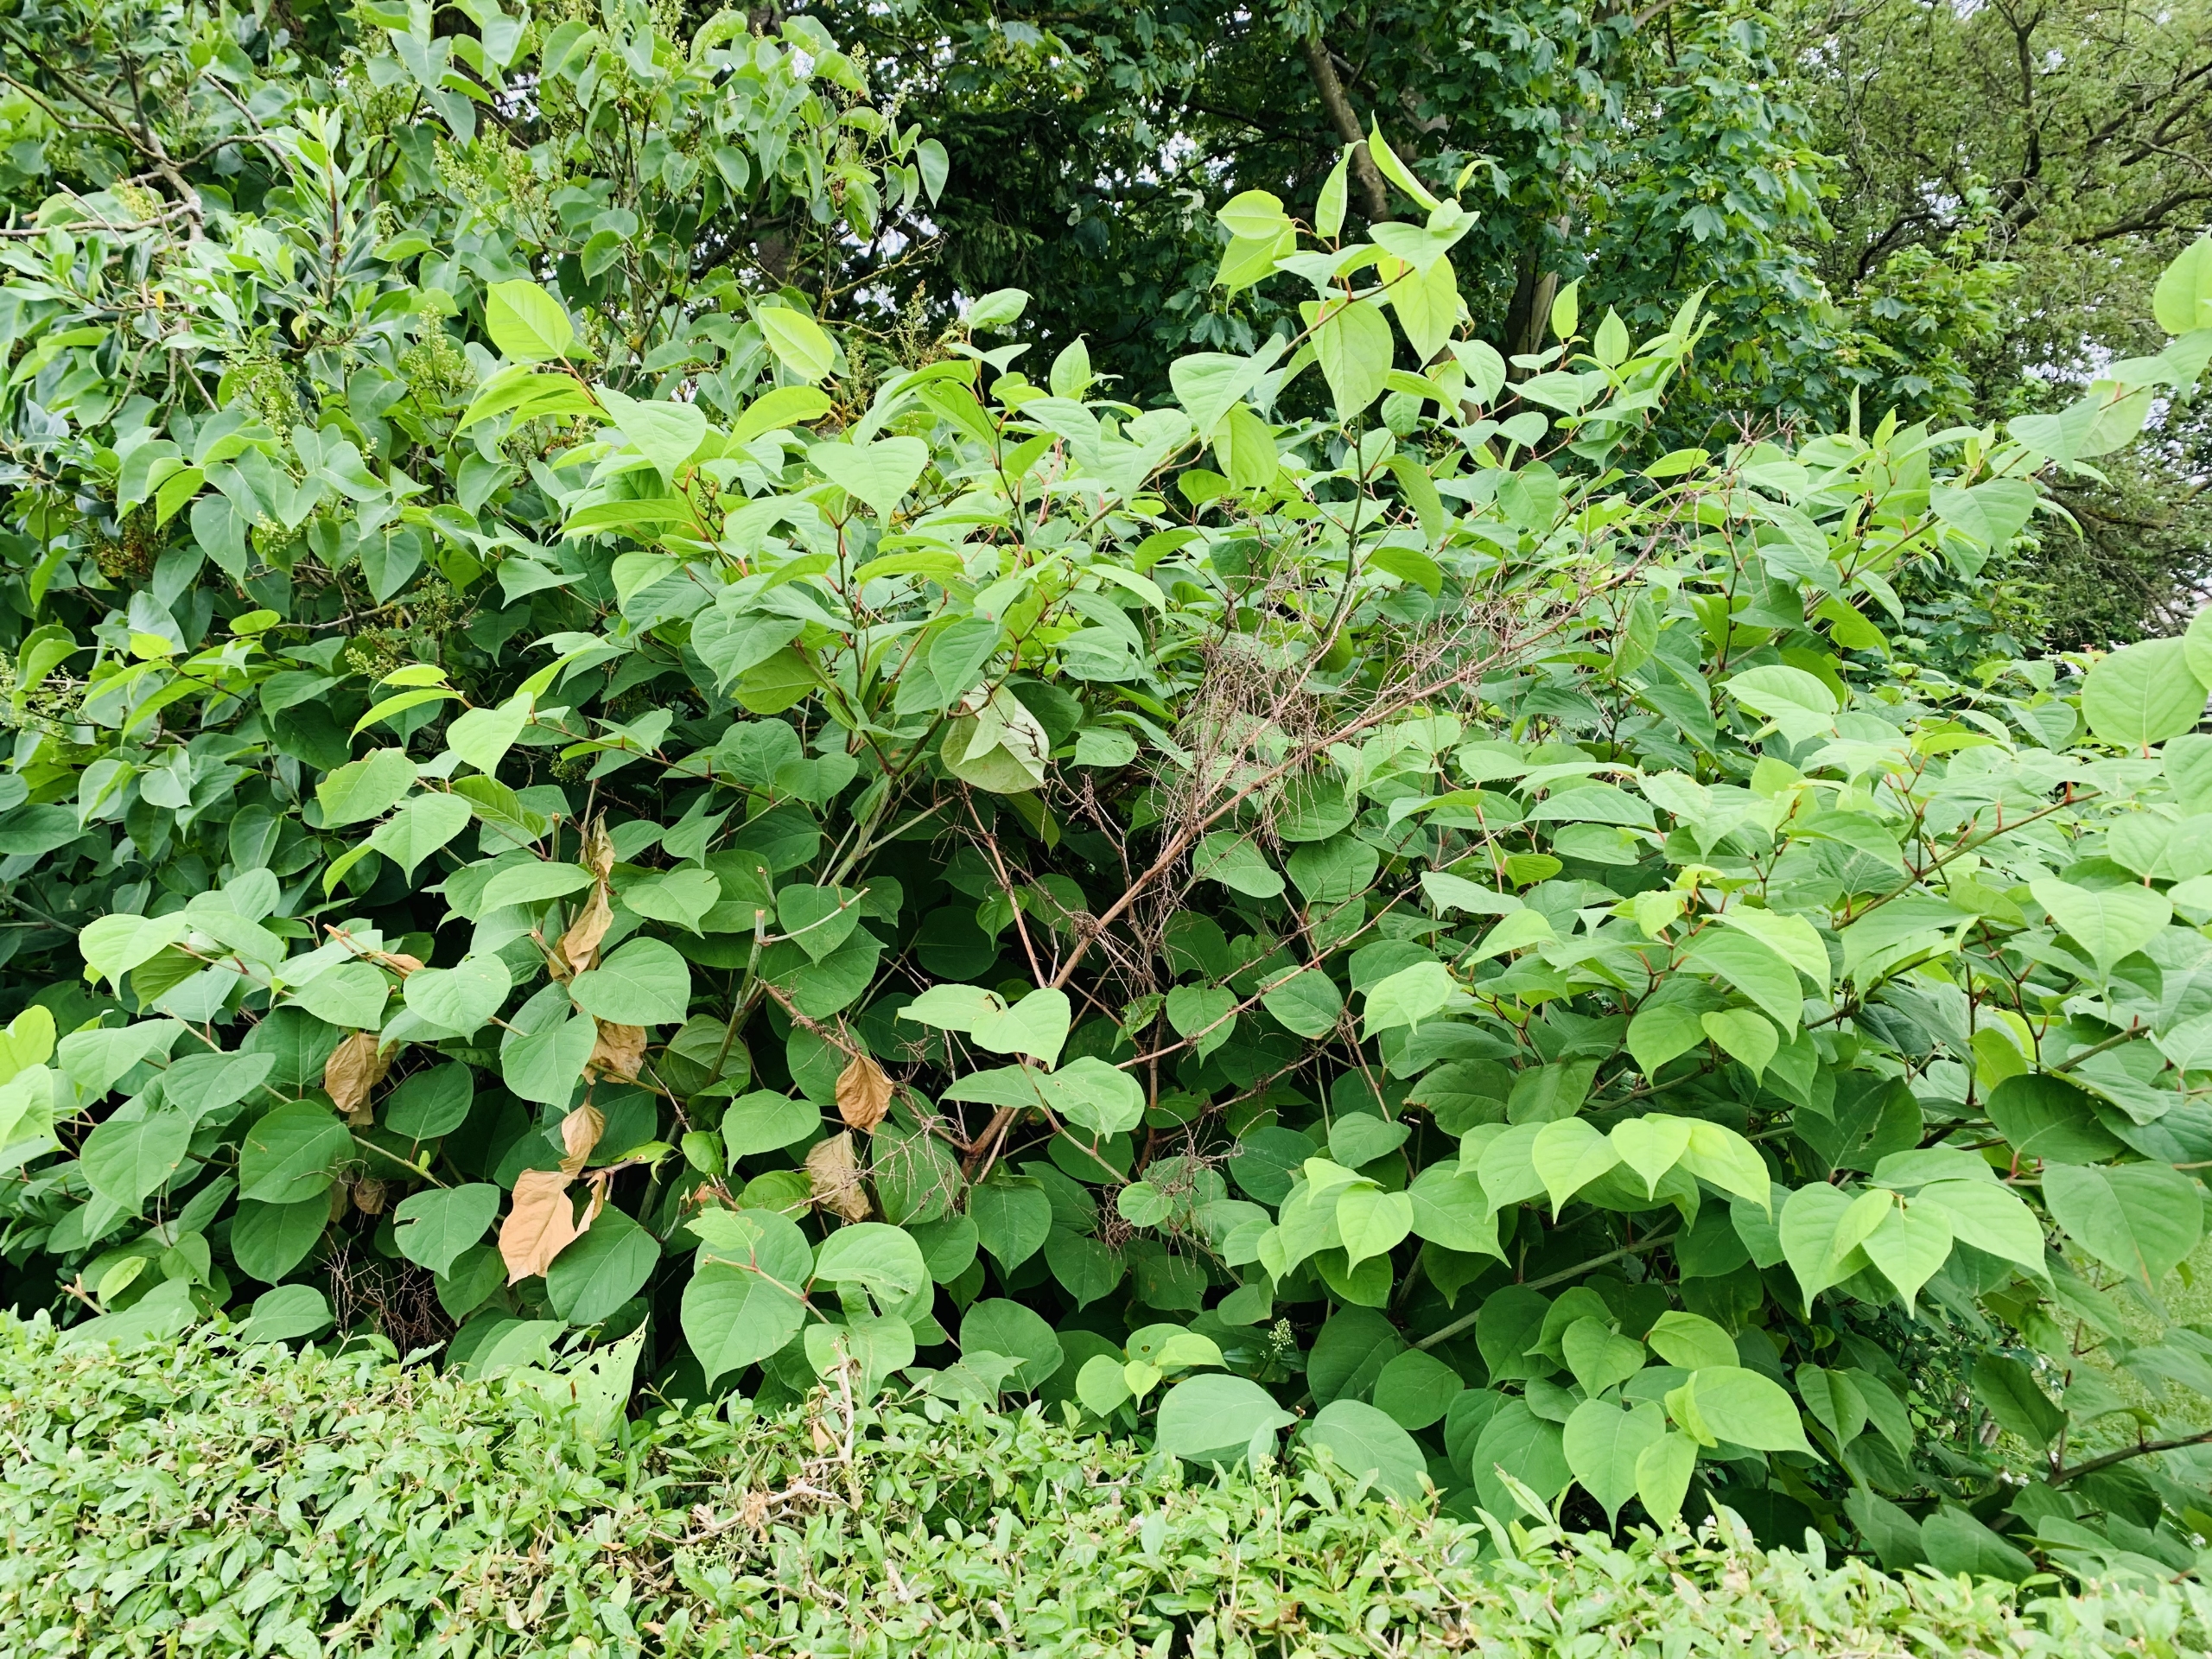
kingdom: Plantae
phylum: Tracheophyta
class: Magnoliopsida
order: Caryophyllales
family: Polygonaceae
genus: Reynoutria
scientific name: Reynoutria japonica
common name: Japan-pileurt
